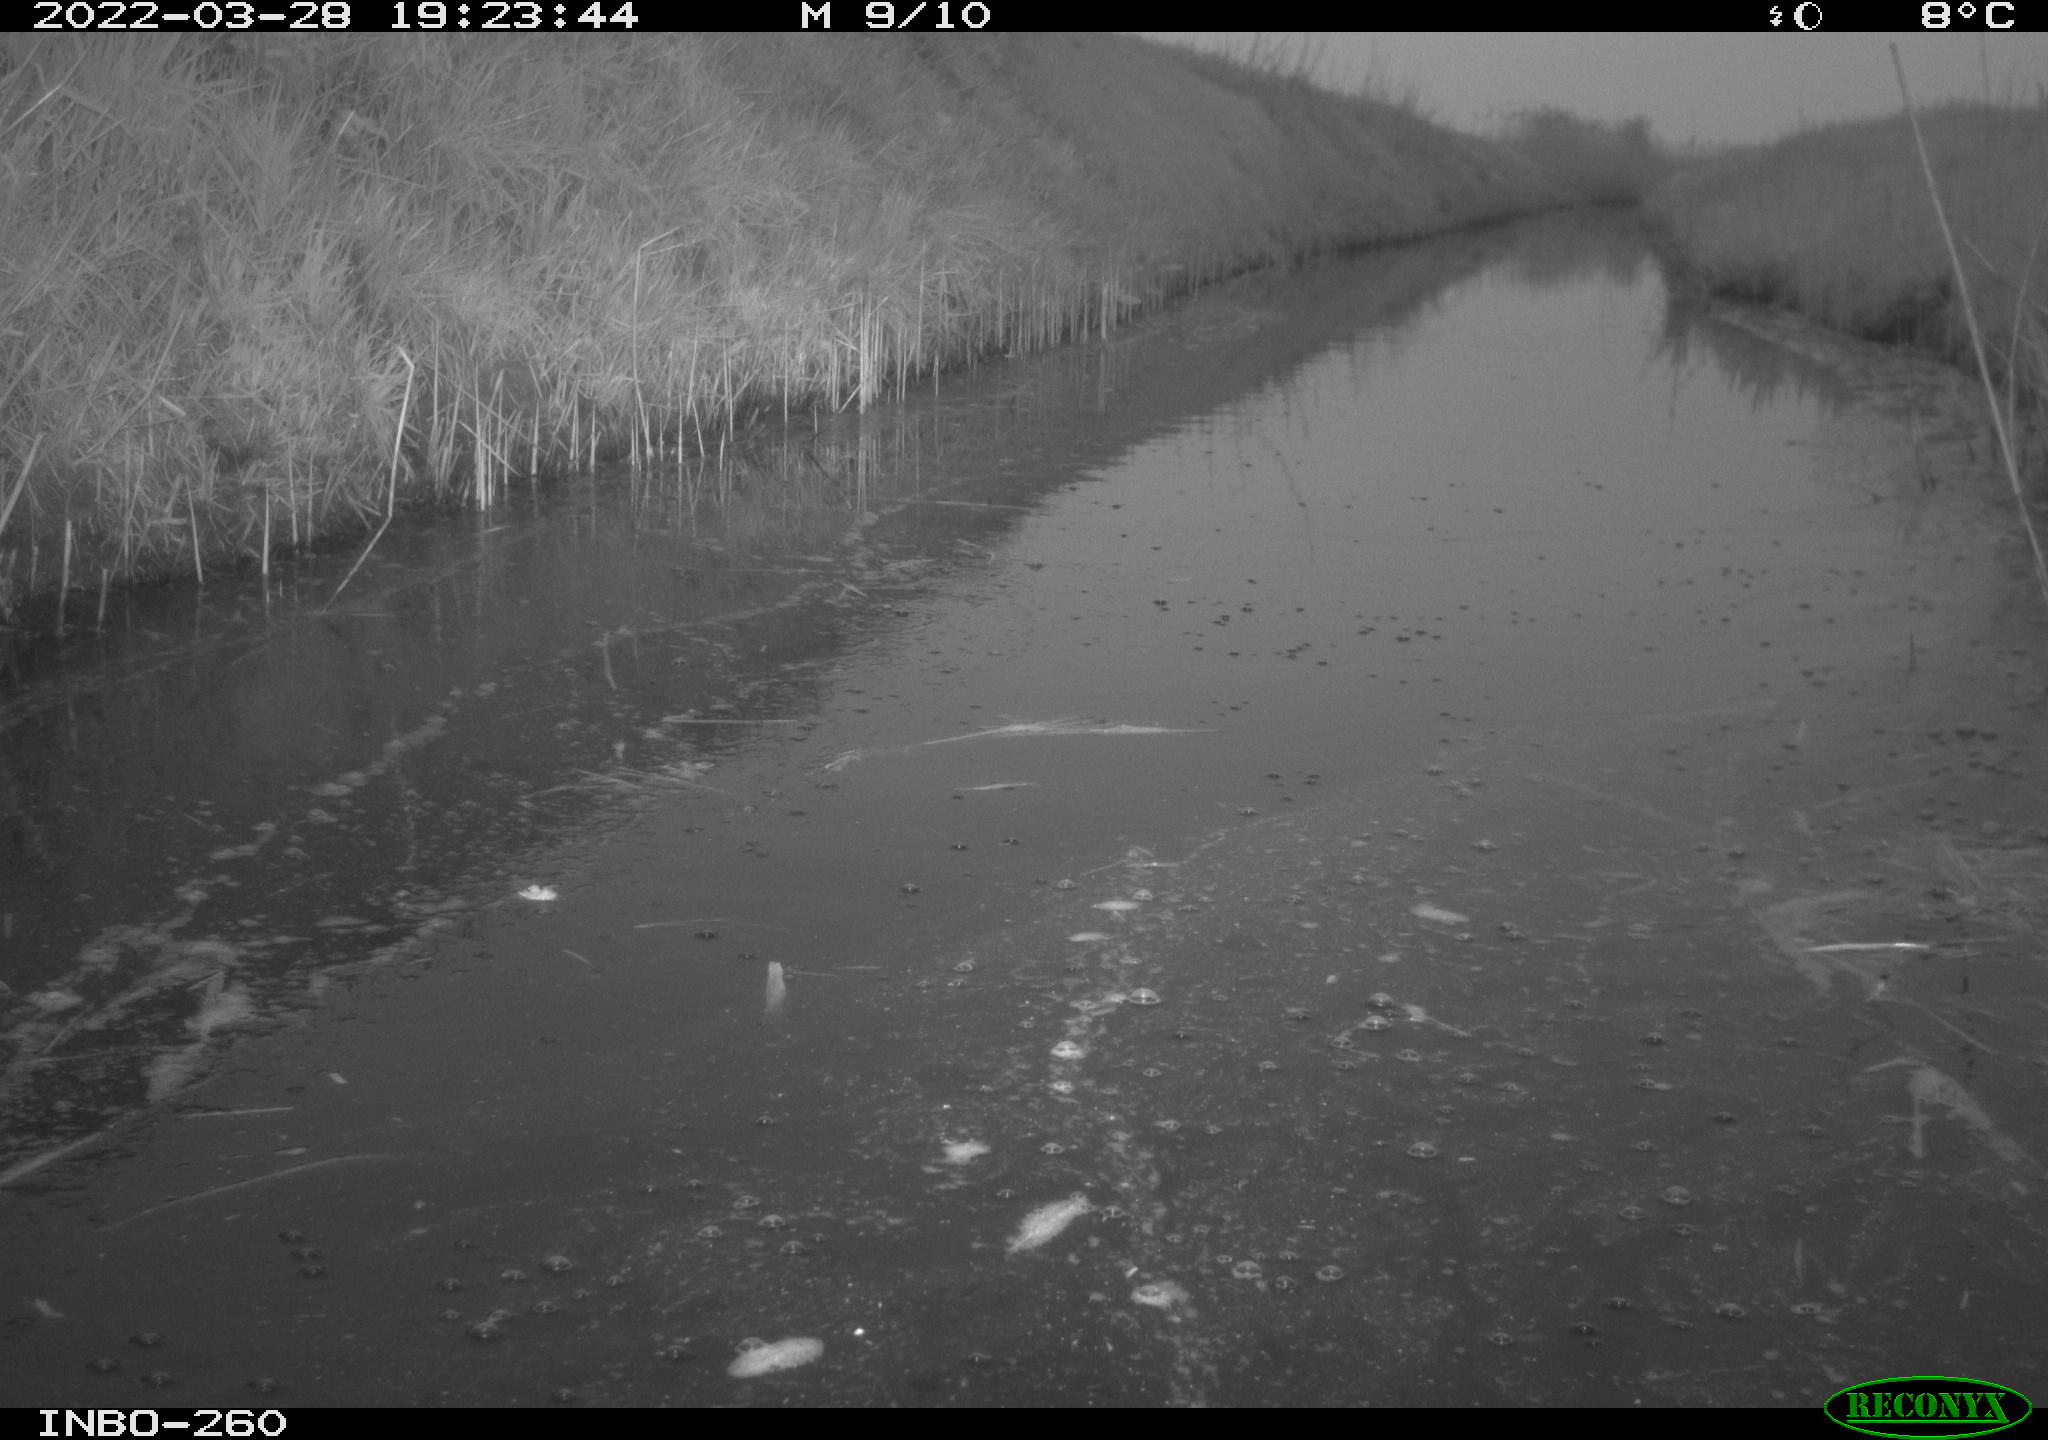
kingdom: Animalia
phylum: Chordata
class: Aves
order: Gruiformes
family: Rallidae
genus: Fulica
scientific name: Fulica atra
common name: Eurasian coot
